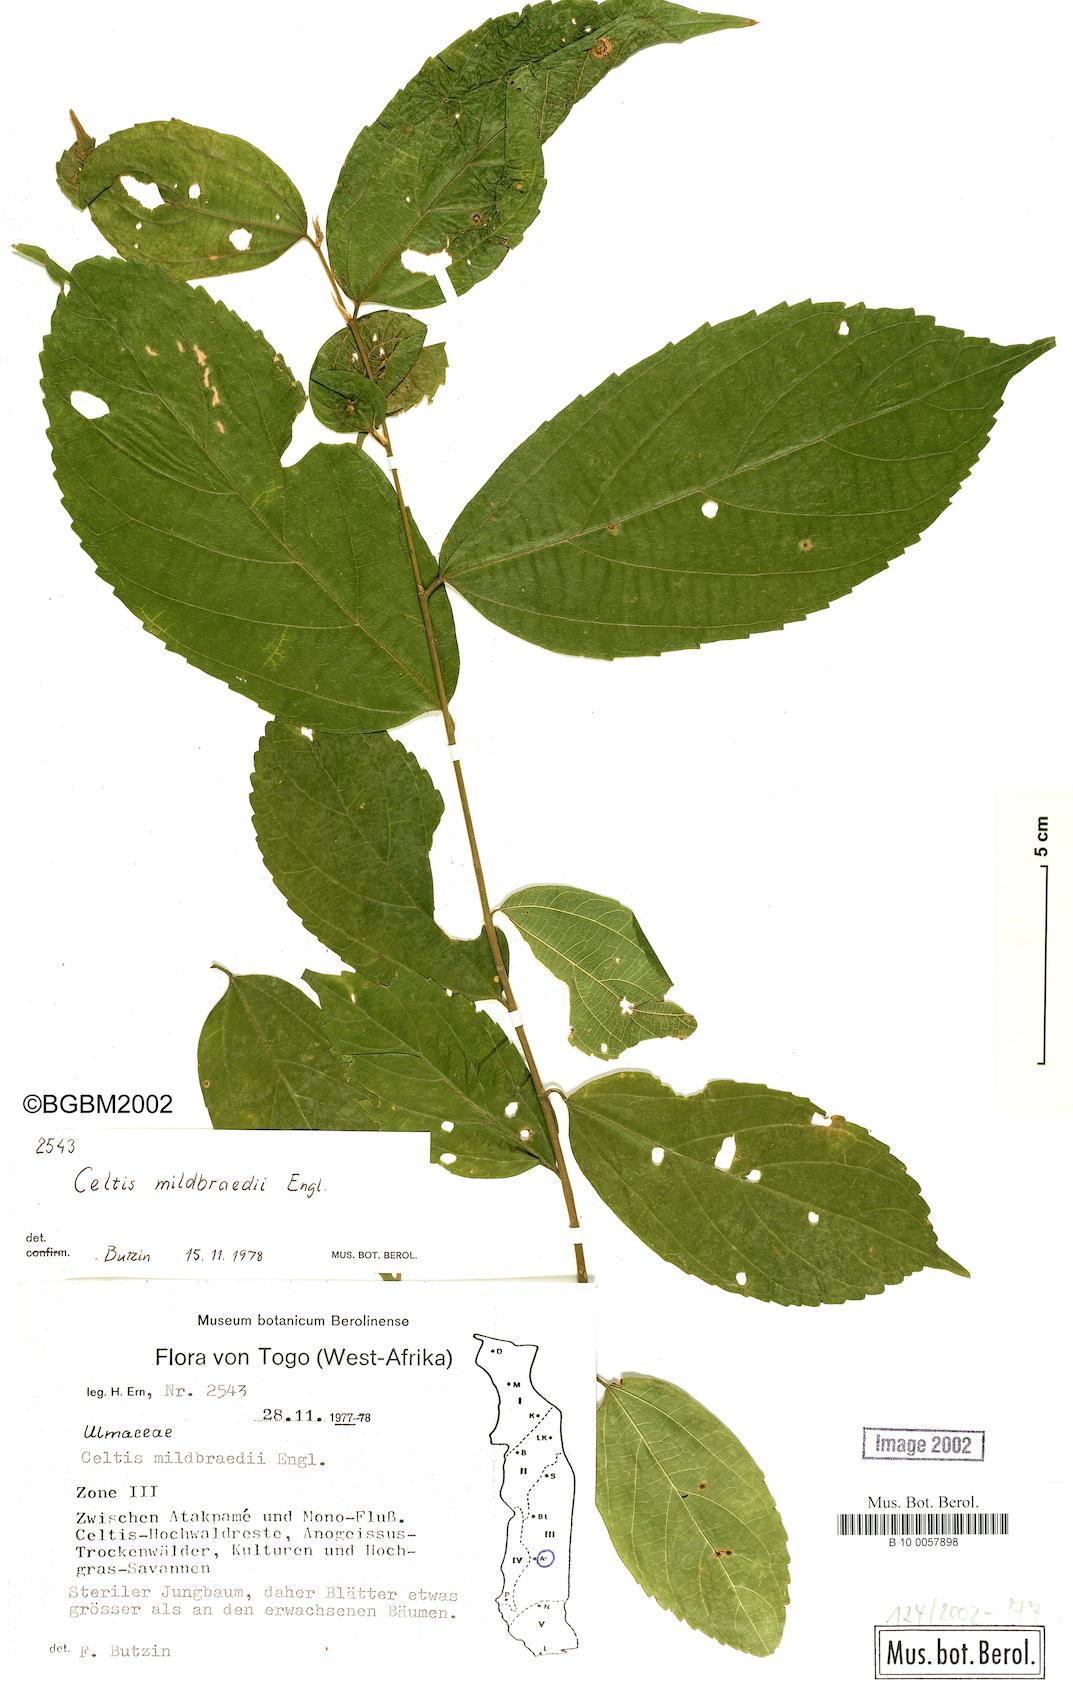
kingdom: Plantae
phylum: Tracheophyta
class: Magnoliopsida
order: Rosales
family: Cannabaceae
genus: Celtis
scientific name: Celtis mildbraedii
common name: Red-fruited stinkwood
